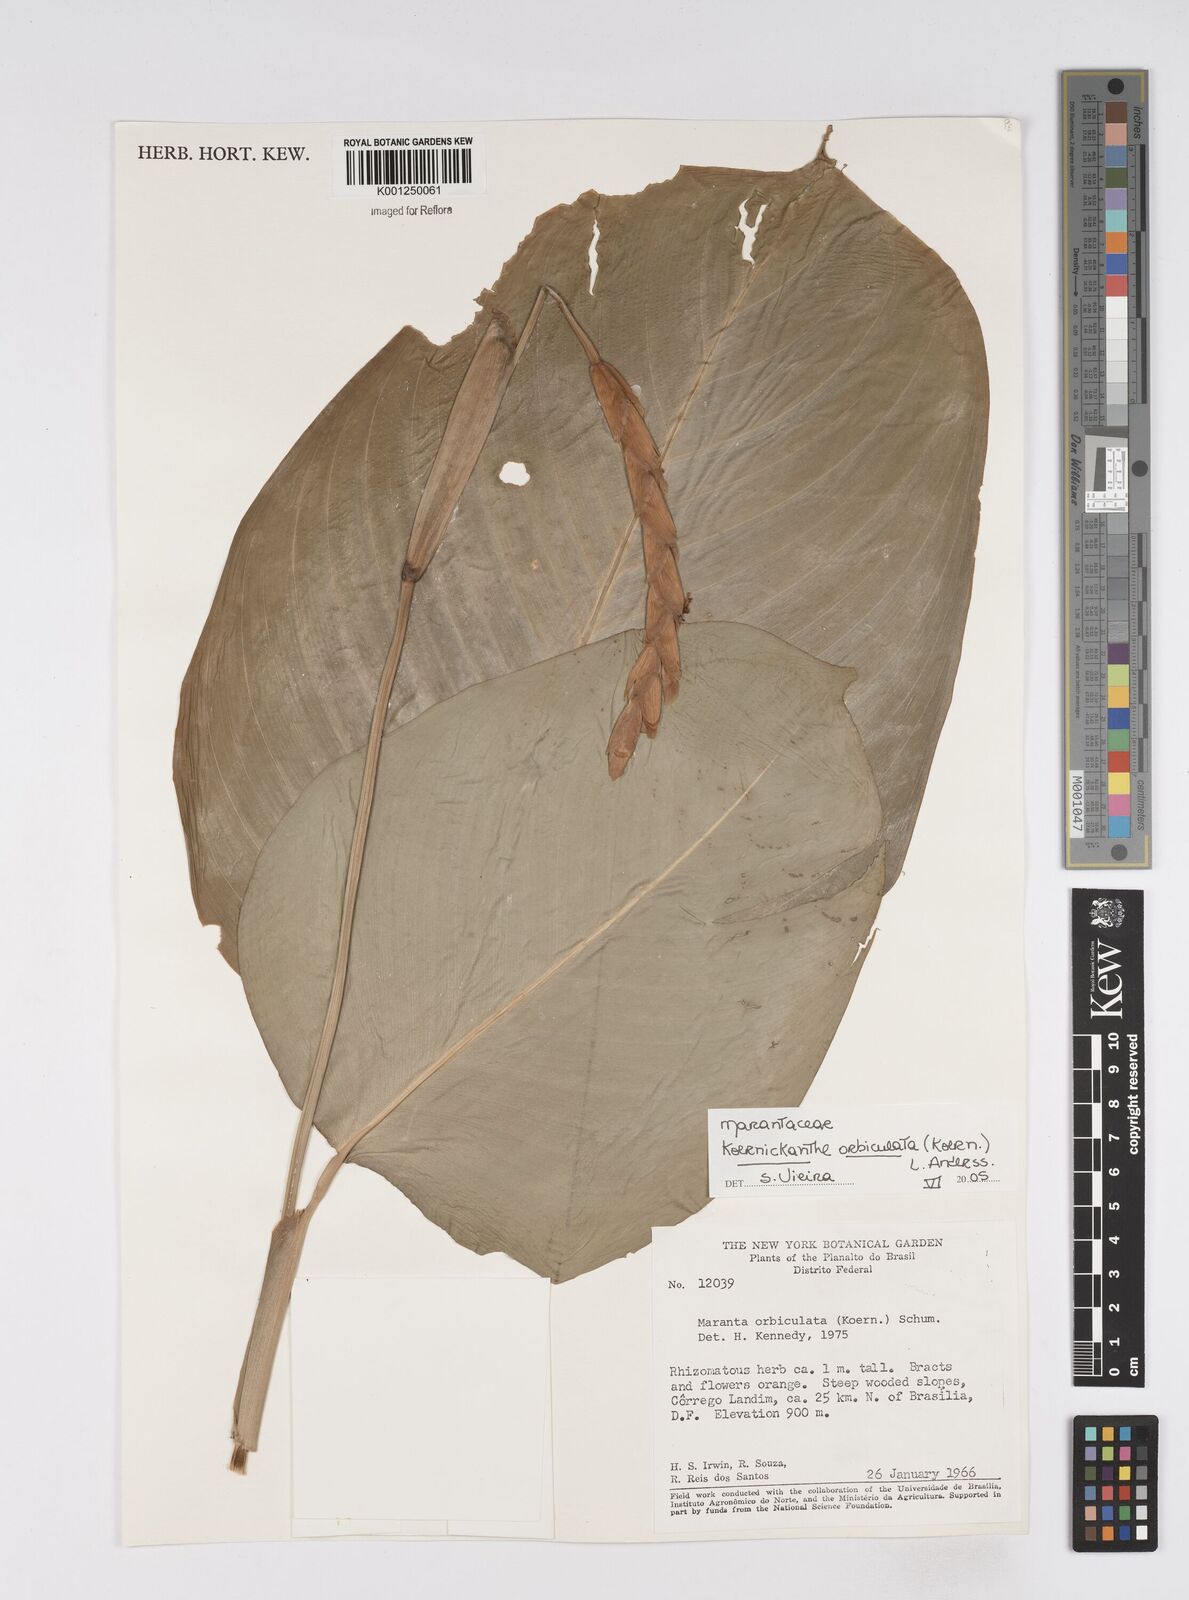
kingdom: Plantae
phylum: Tracheophyta
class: Liliopsida
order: Zingiberales
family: Marantaceae
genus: Koernickanthe
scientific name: Koernickanthe orbiculata
